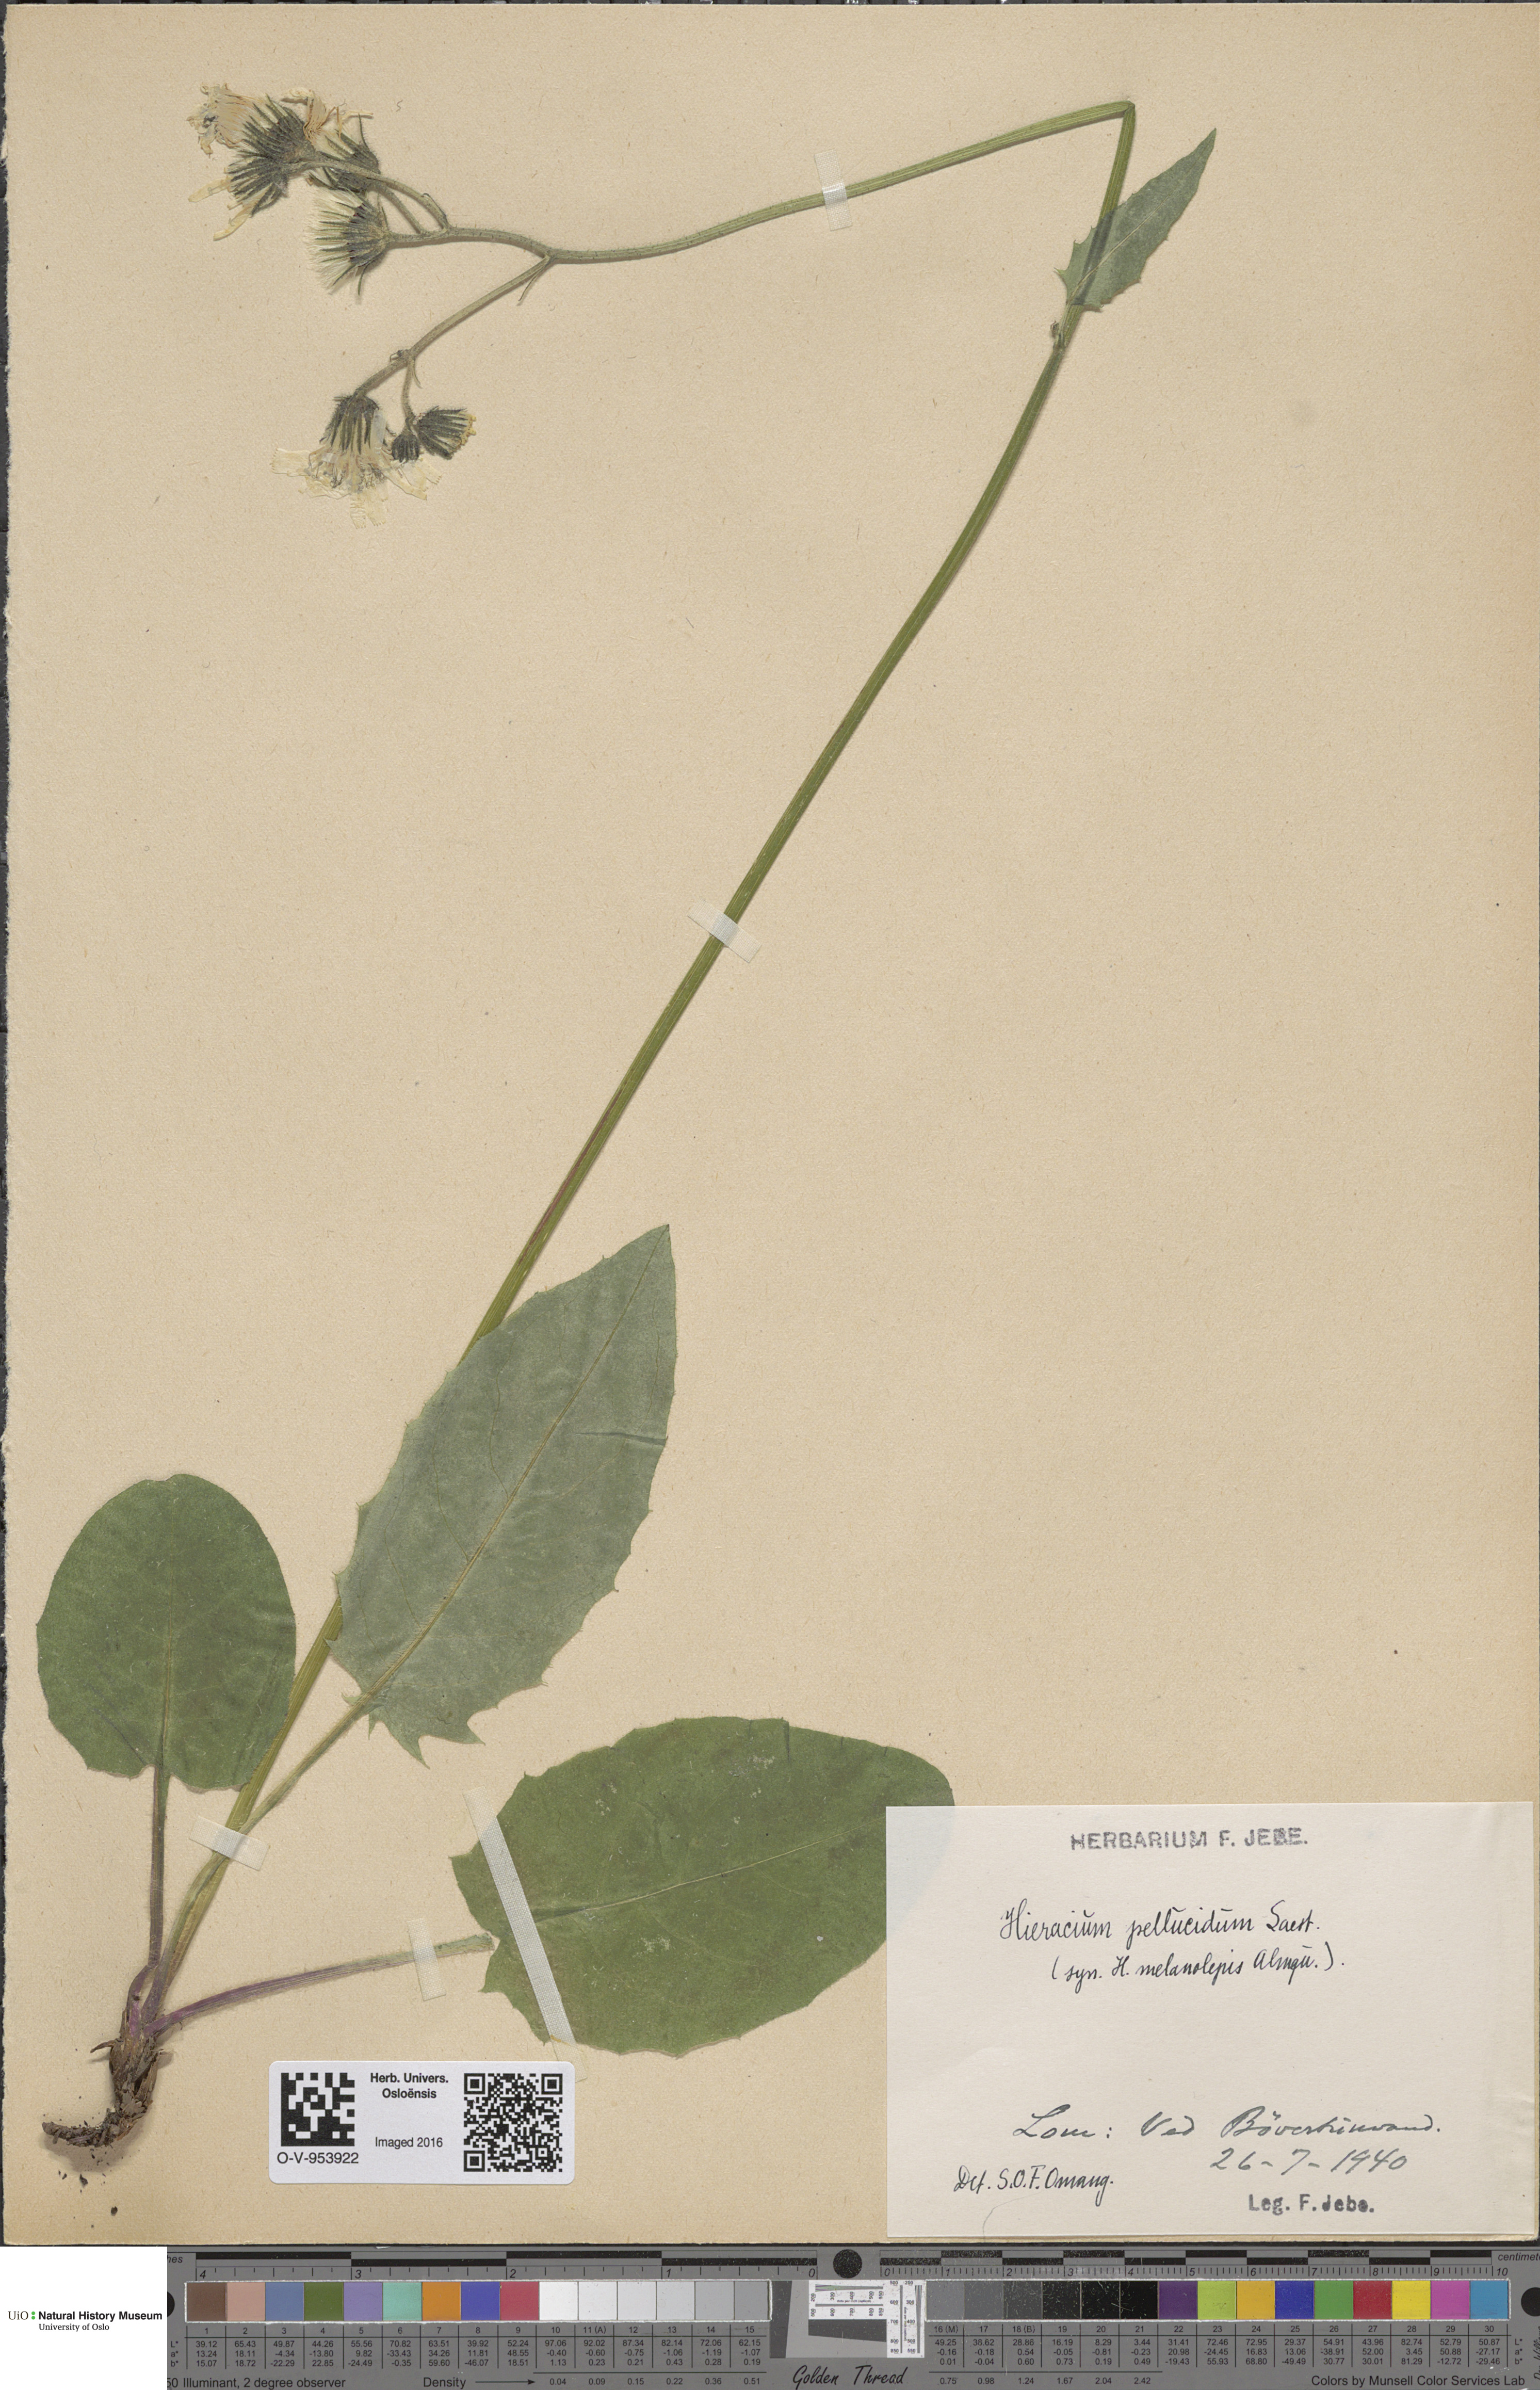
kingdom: Plantae
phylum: Tracheophyta
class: Magnoliopsida
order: Asterales
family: Asteraceae
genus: Hieracium
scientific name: Hieracium
